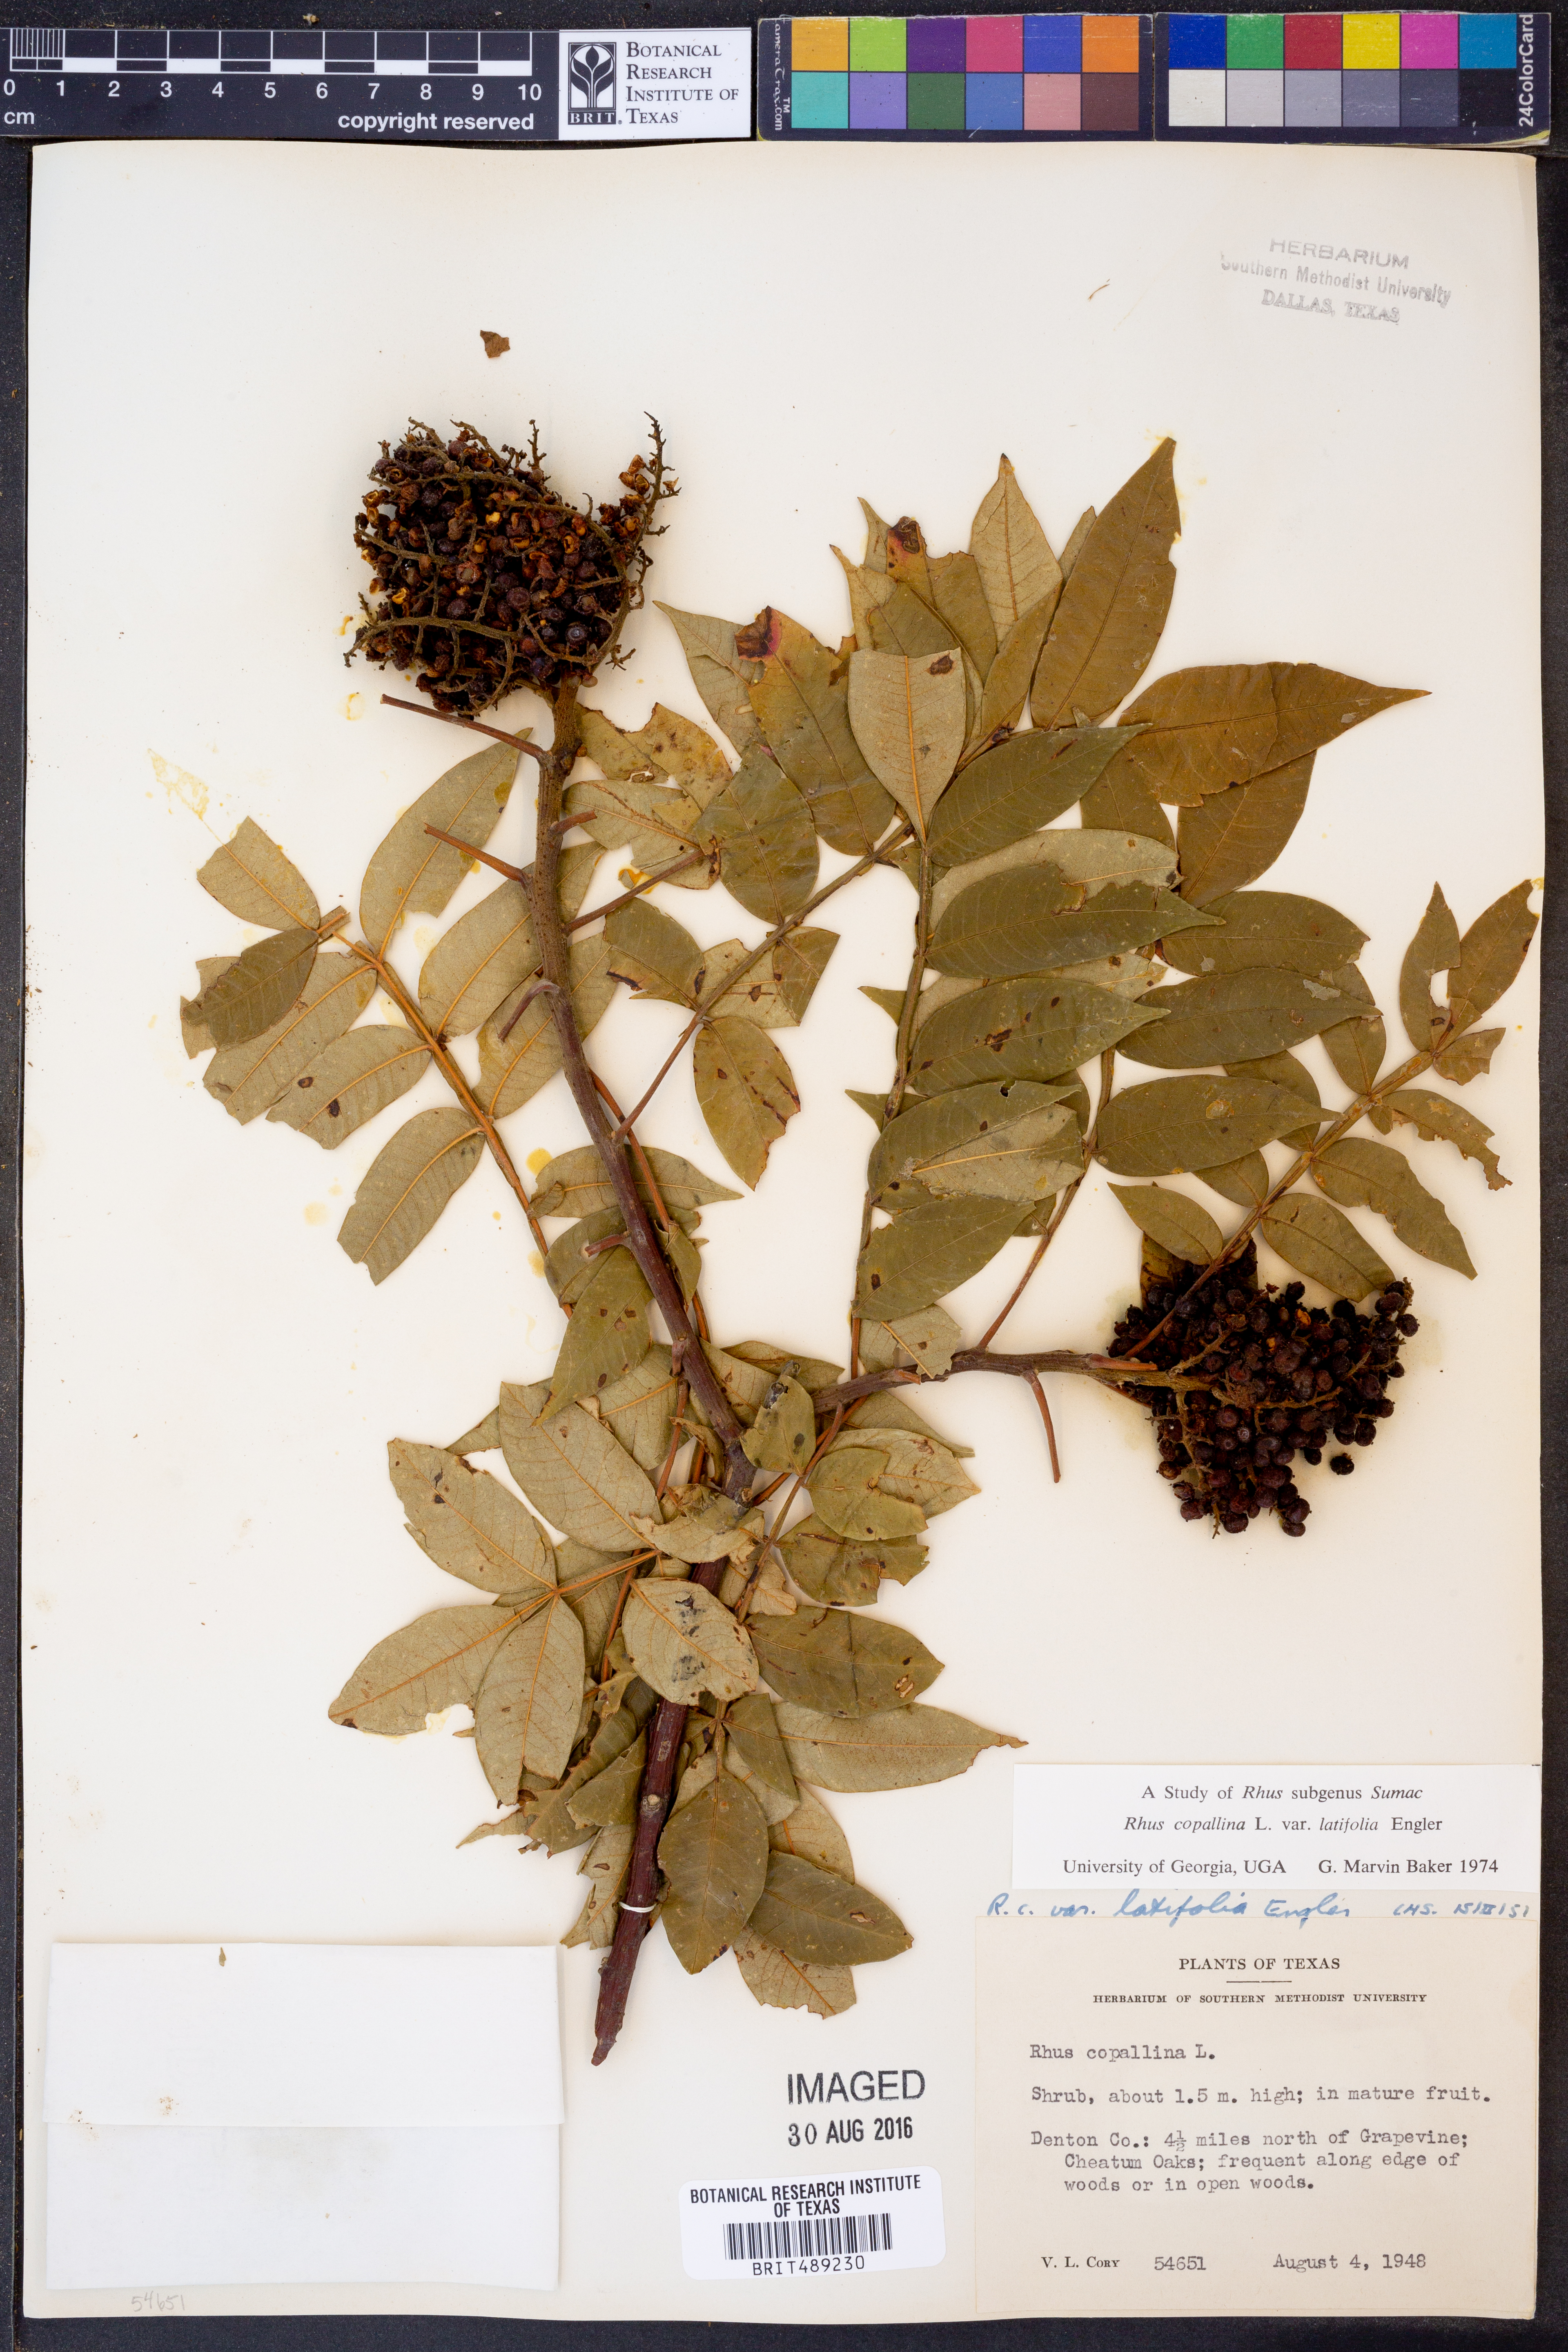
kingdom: Plantae
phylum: Tracheophyta
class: Magnoliopsida
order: Sapindales
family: Anacardiaceae
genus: Rhus
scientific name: Rhus copallina
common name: Shining sumac
